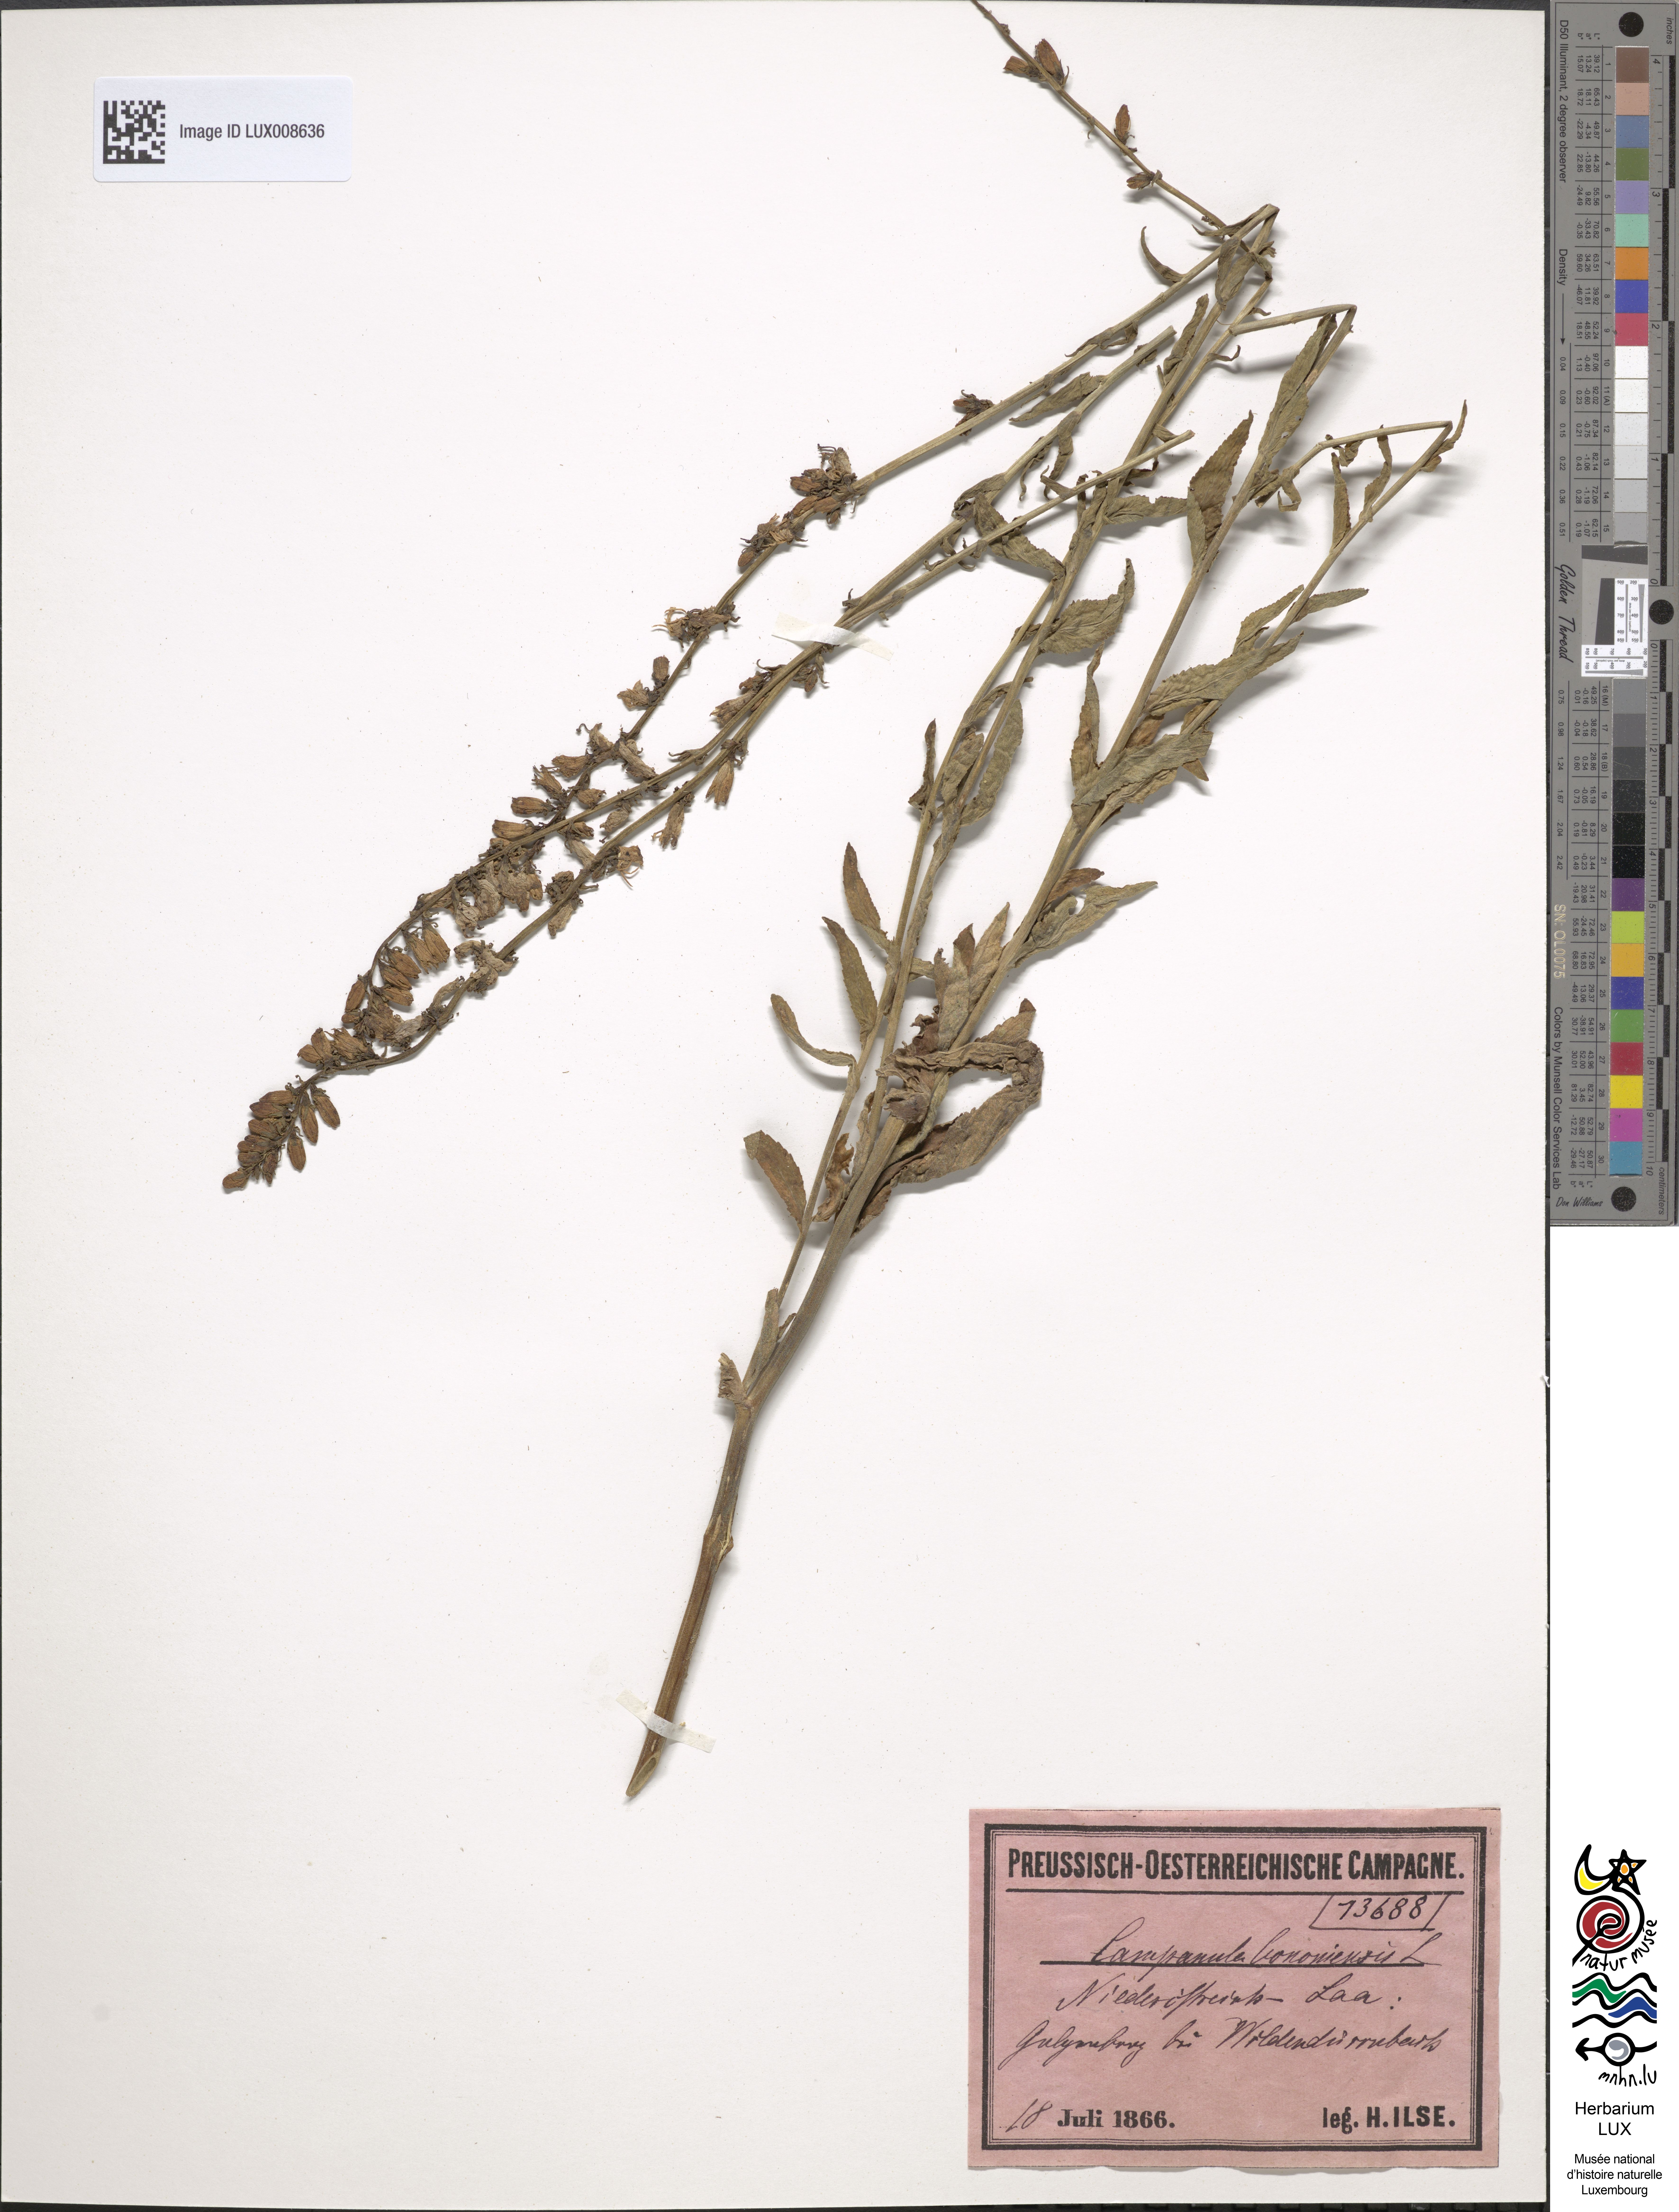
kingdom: Plantae
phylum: Tracheophyta
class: Magnoliopsida
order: Asterales
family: Campanulaceae
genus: Campanula
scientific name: Campanula bononiensis
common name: Pale bellflower
